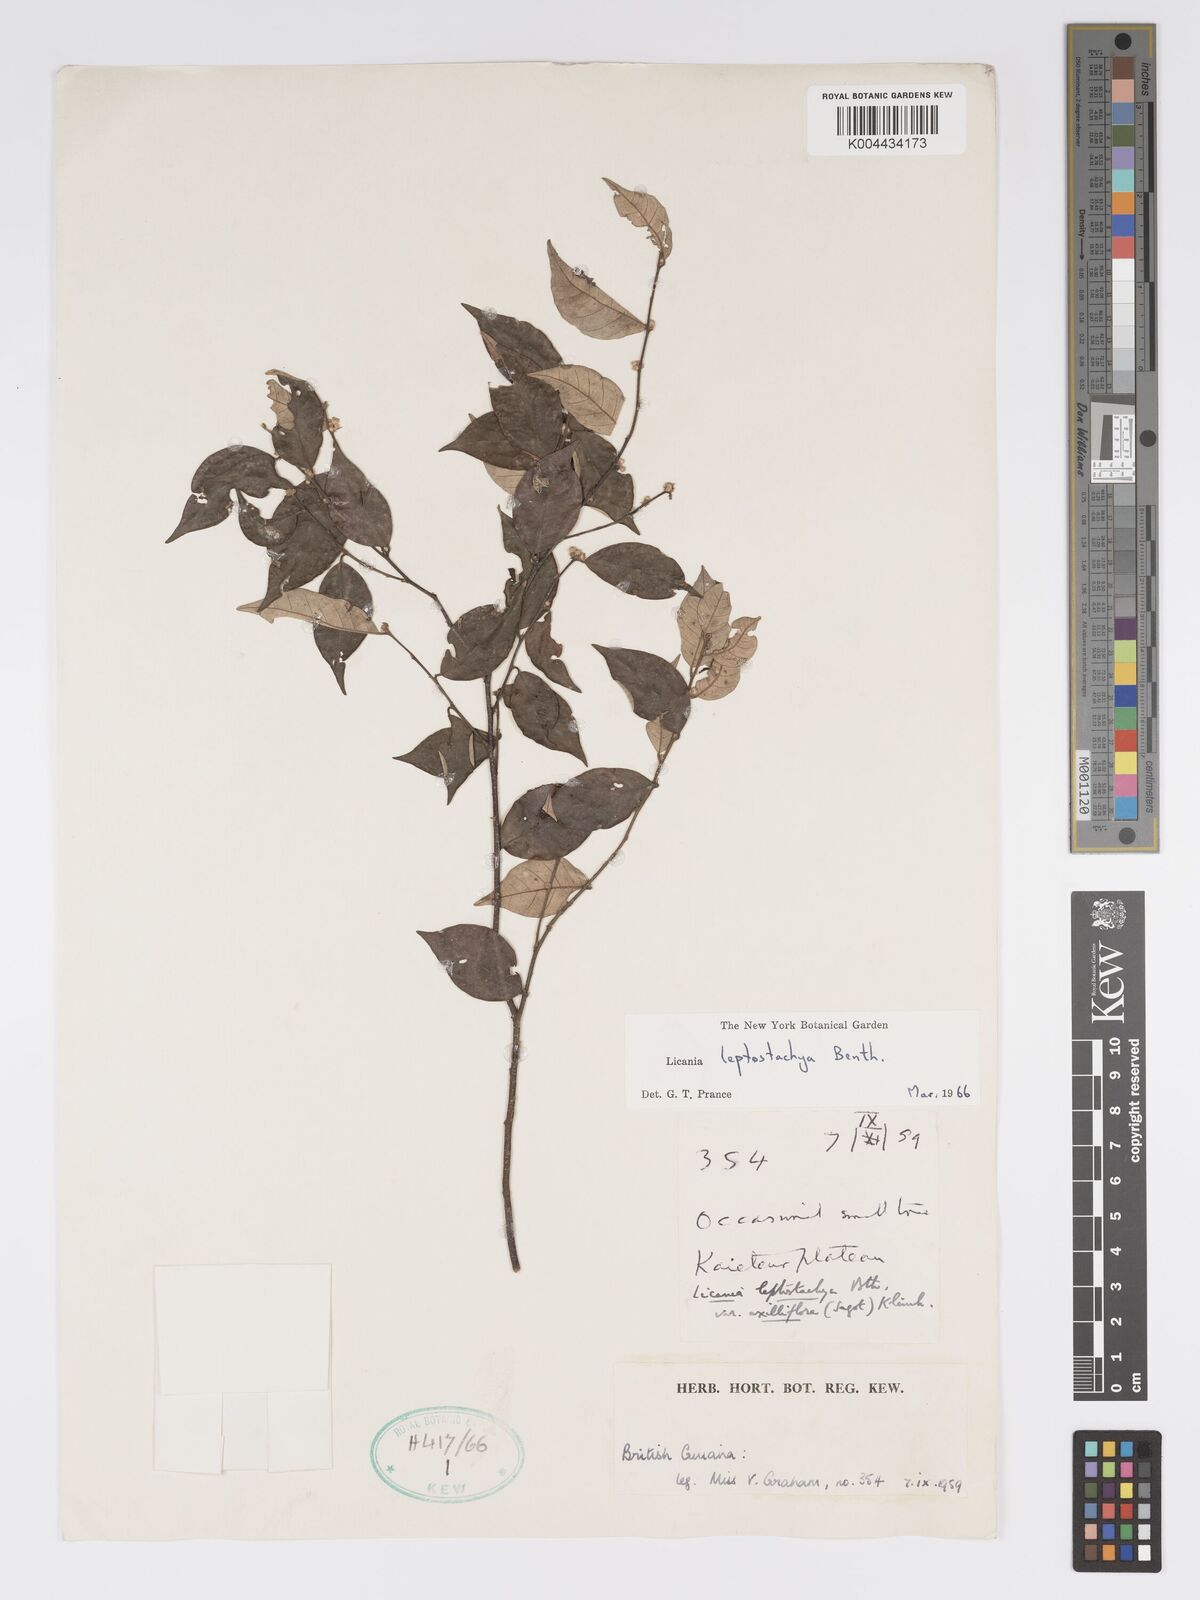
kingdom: Plantae
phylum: Tracheophyta
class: Magnoliopsida
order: Malpighiales
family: Chrysobalanaceae
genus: Licania
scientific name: Licania leptostachya
